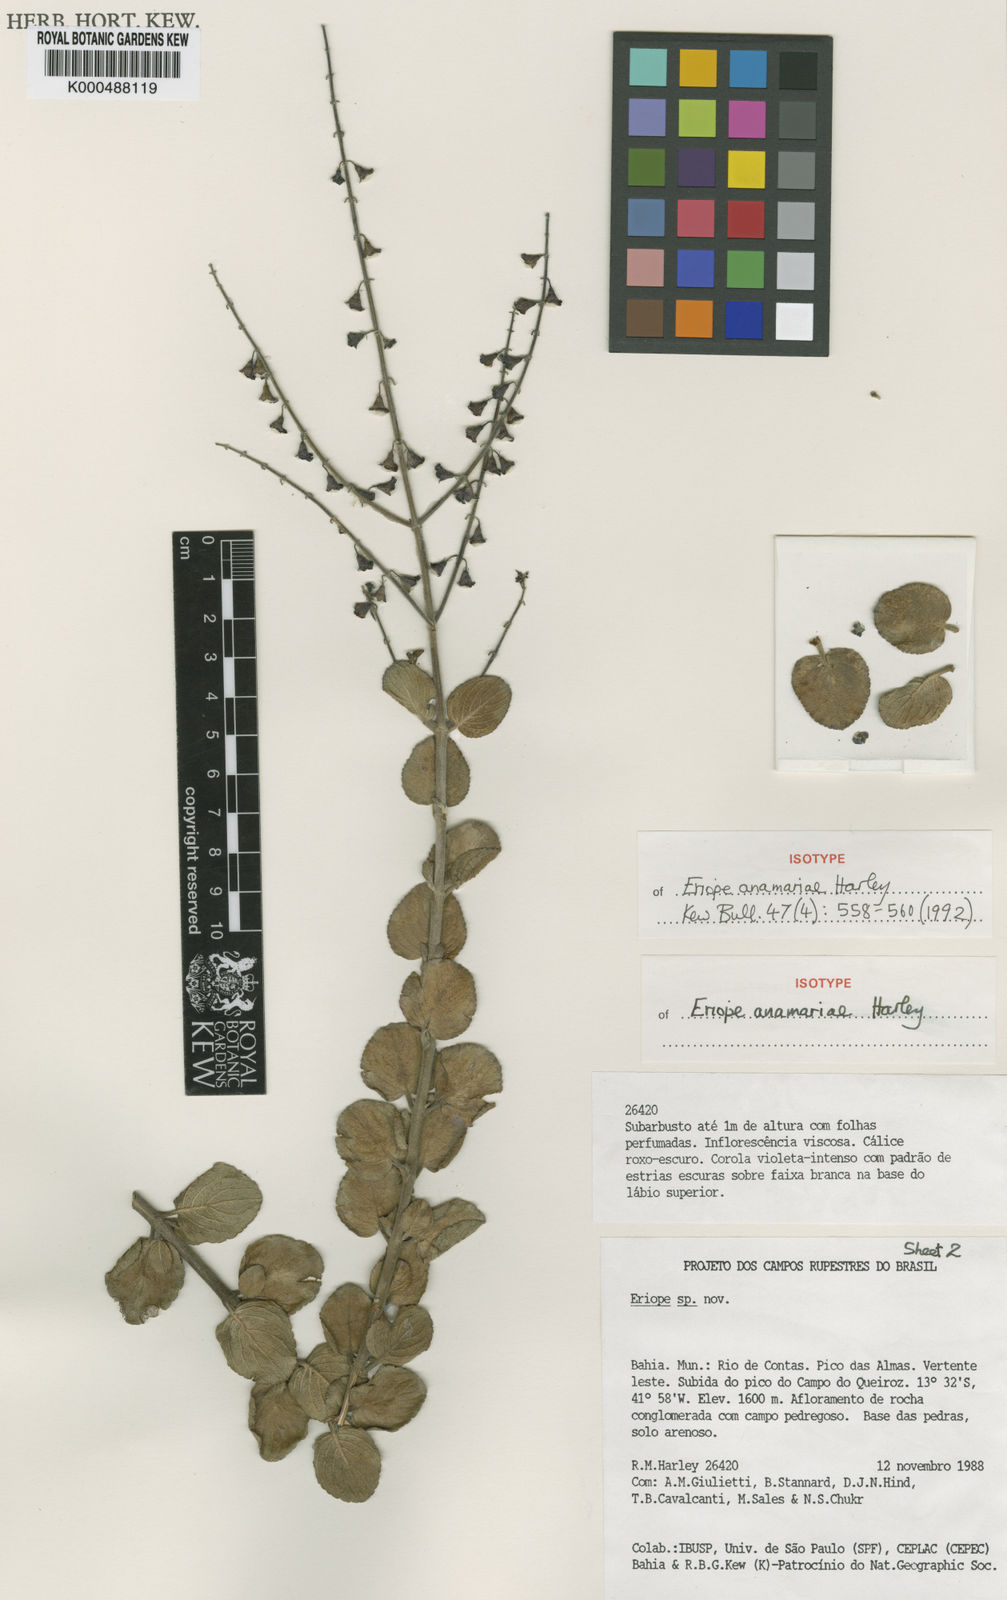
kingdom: Plantae
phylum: Tracheophyta
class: Magnoliopsida
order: Lamiales
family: Lamiaceae
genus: Eriope
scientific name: Eriope anamariae
